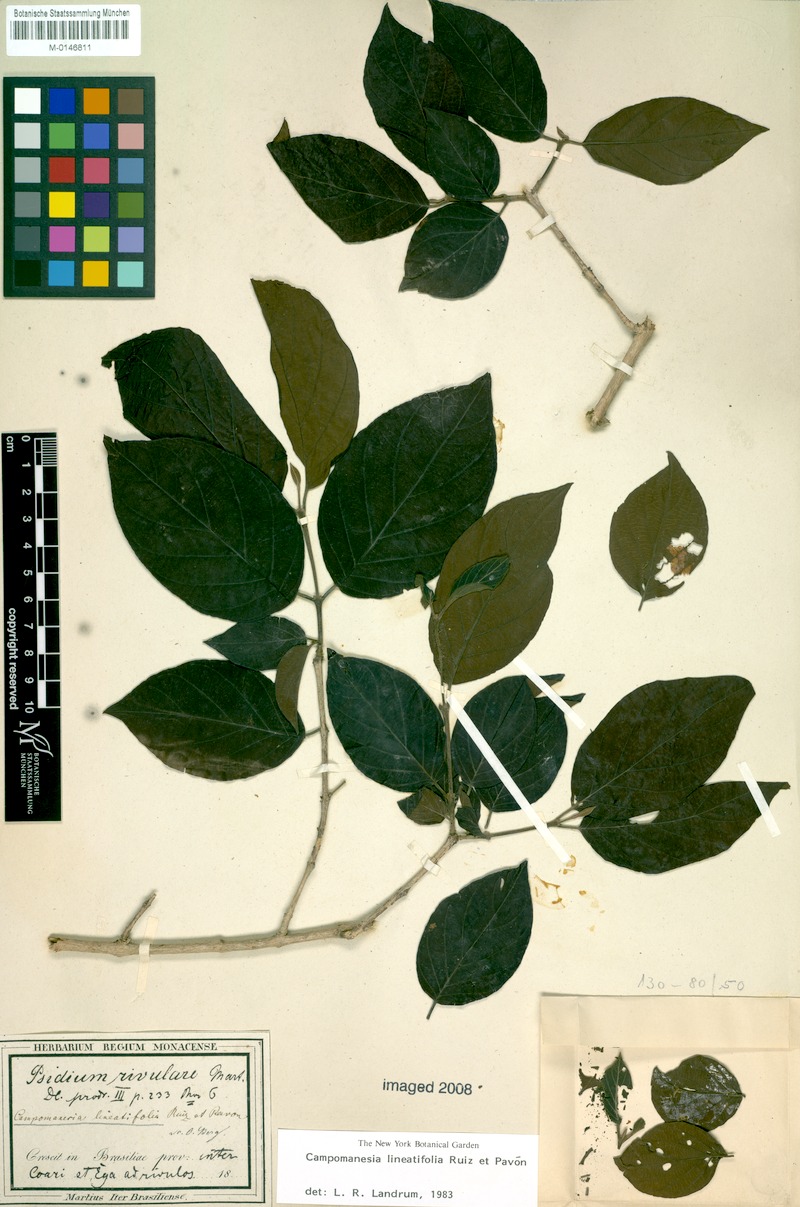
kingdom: Plantae
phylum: Tracheophyta
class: Magnoliopsida
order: Myrtales
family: Myrtaceae
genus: Campomanesia
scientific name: Campomanesia lineatifolia
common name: Perfume guava
